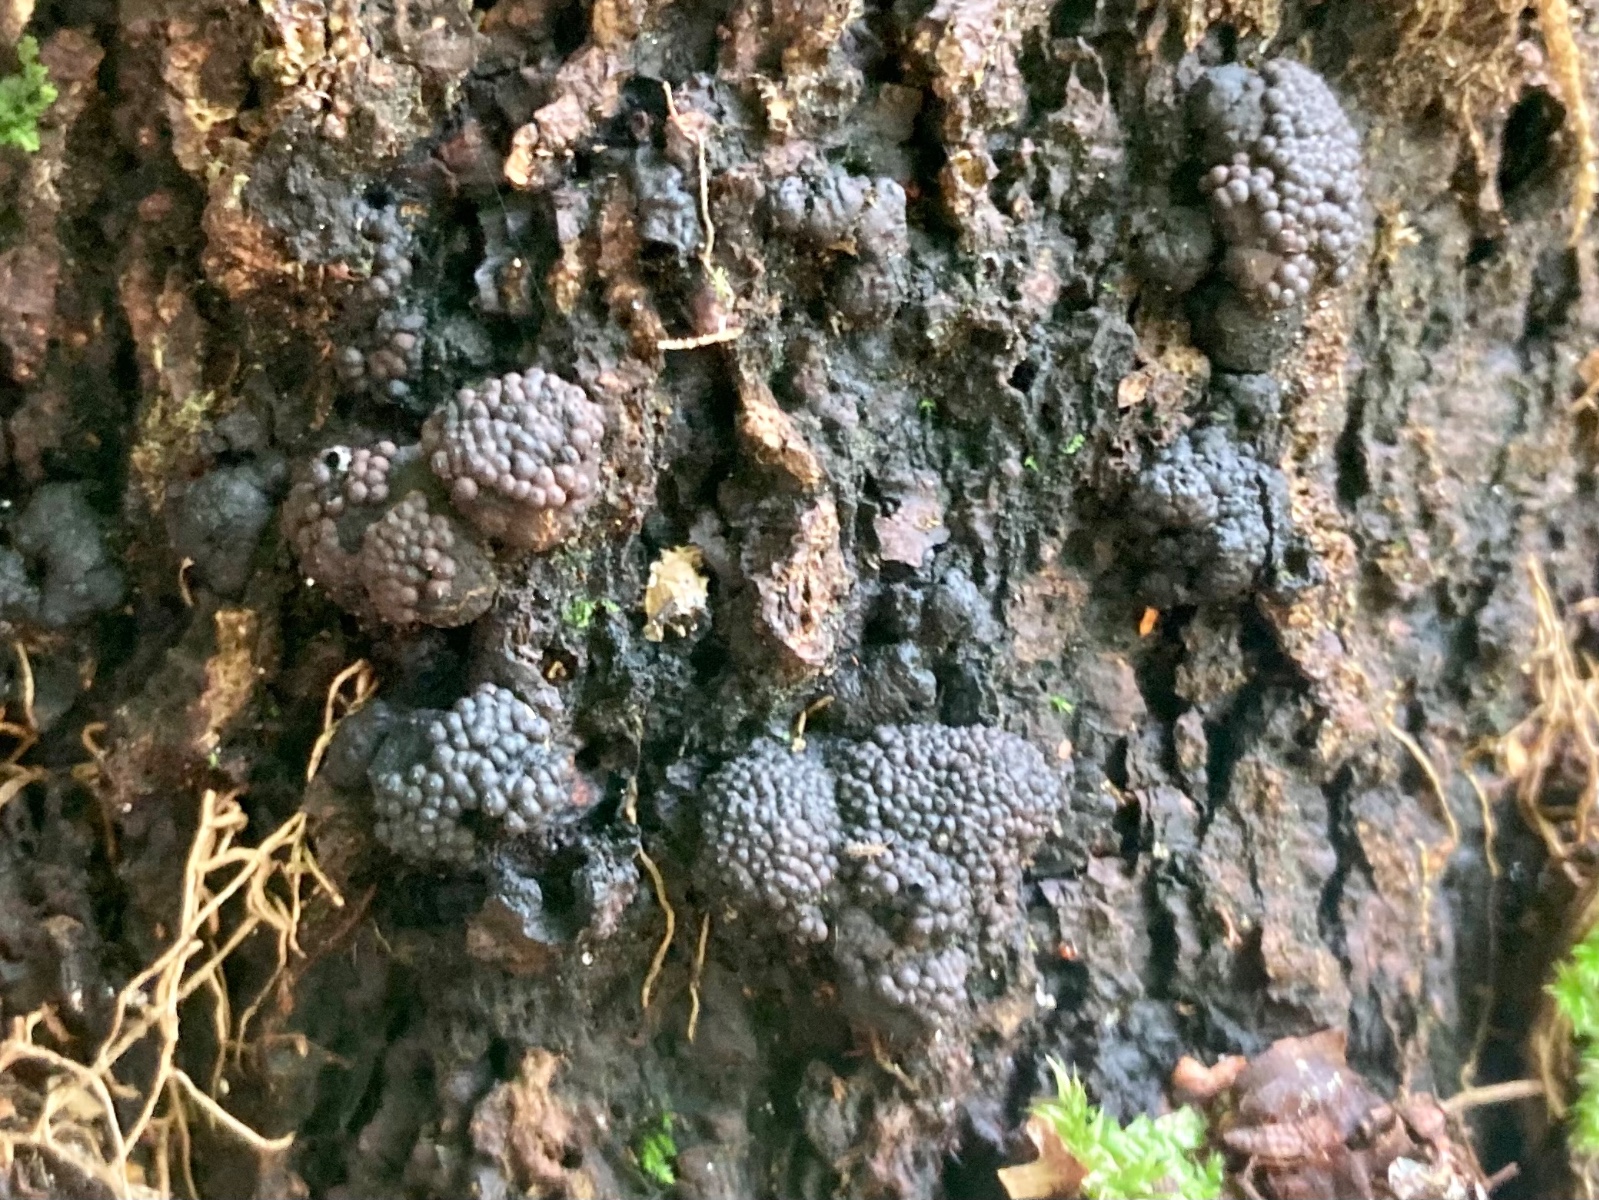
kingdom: Fungi
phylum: Ascomycota
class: Sordariomycetes
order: Xylariales
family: Hypoxylaceae
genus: Jackrogersella
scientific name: Jackrogersella multiformis
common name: foranderlig kulbær
